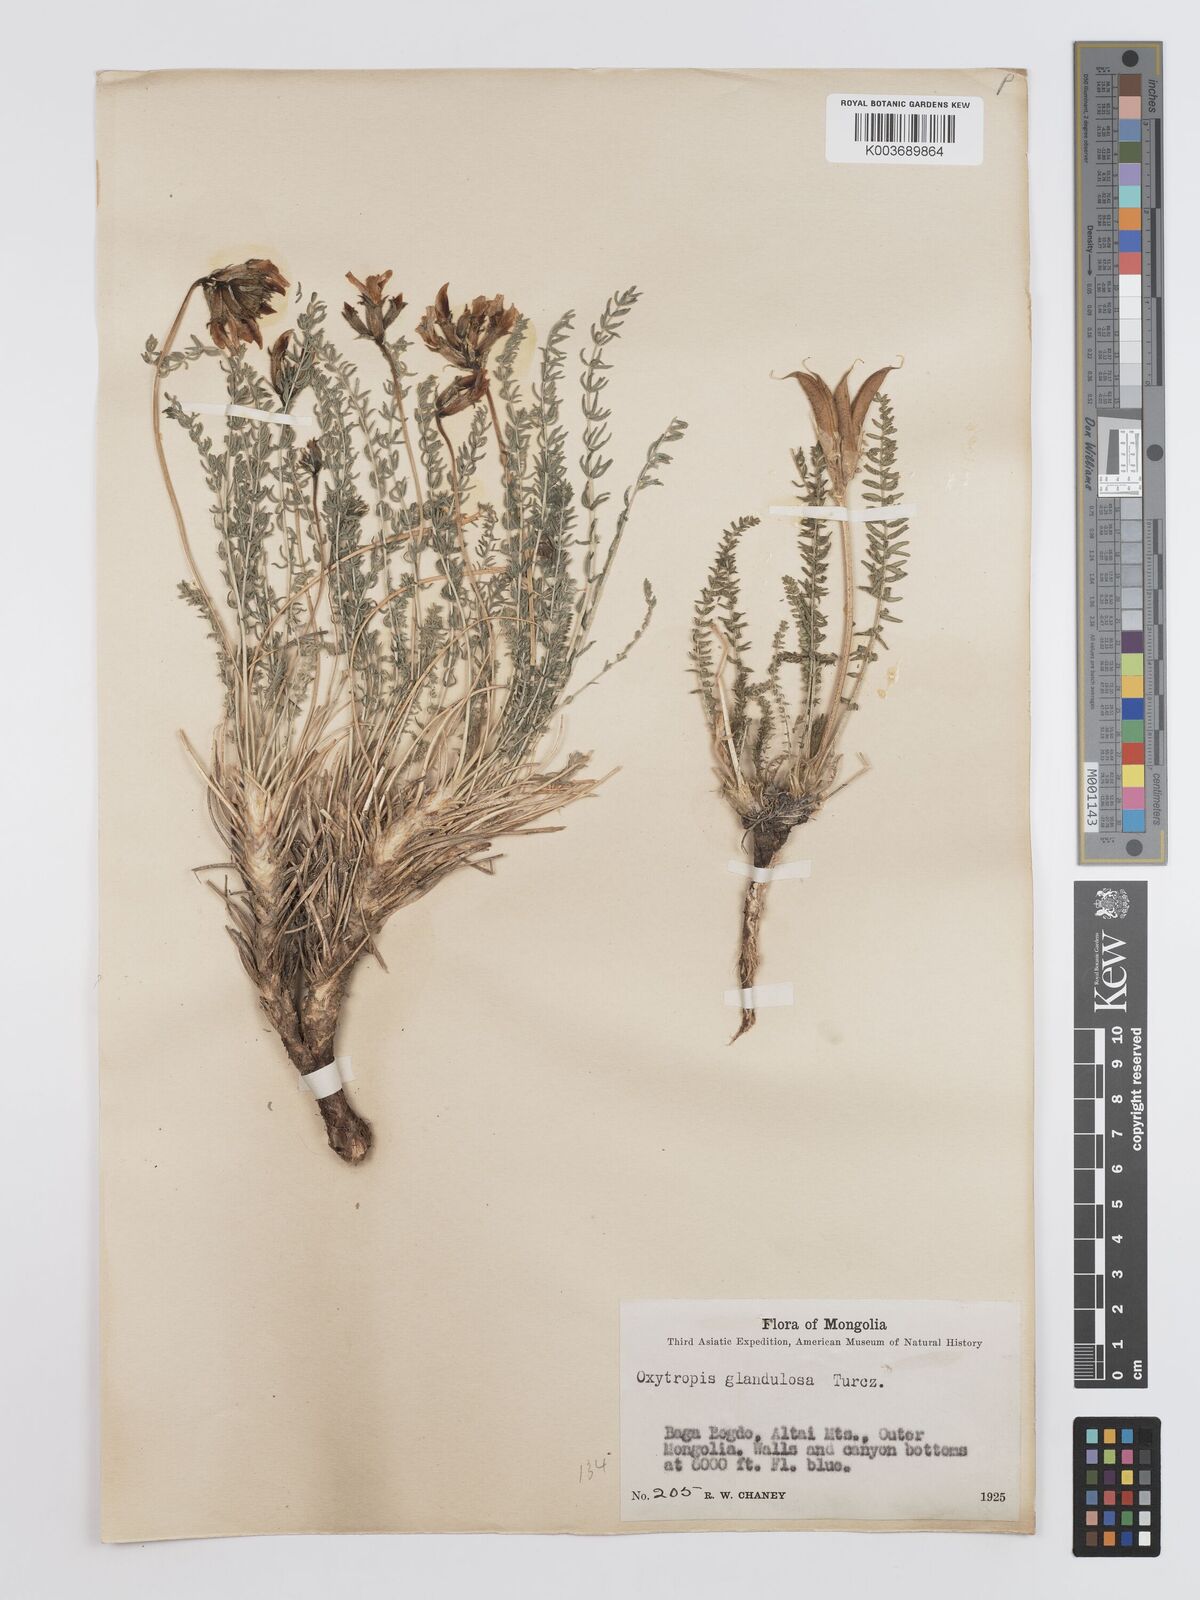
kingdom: Plantae
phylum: Tracheophyta
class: Magnoliopsida
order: Fabales
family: Fabaceae
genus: Oxytropis
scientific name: Oxytropis glandulosa
